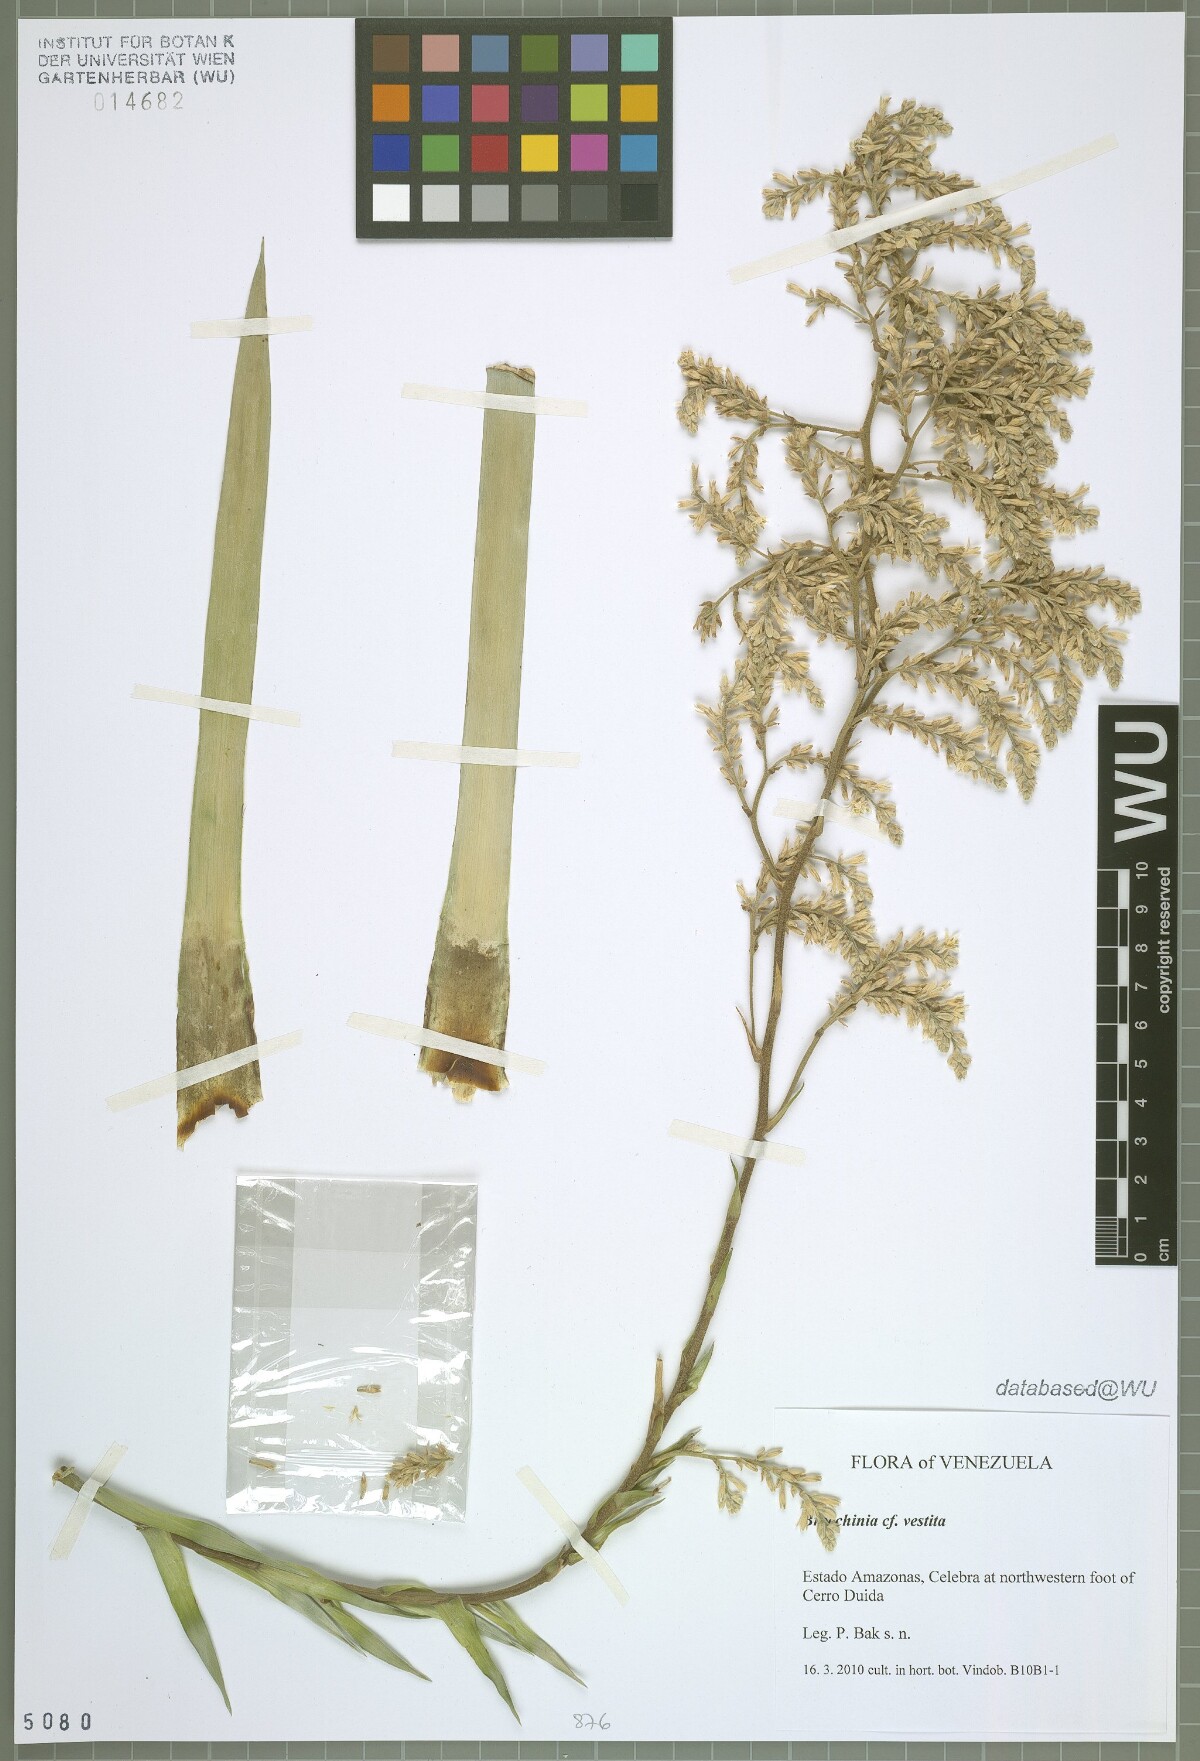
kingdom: Plantae
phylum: Tracheophyta
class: Liliopsida
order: Poales
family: Bromeliaceae
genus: Brocchinia
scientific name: Brocchinia vestita
